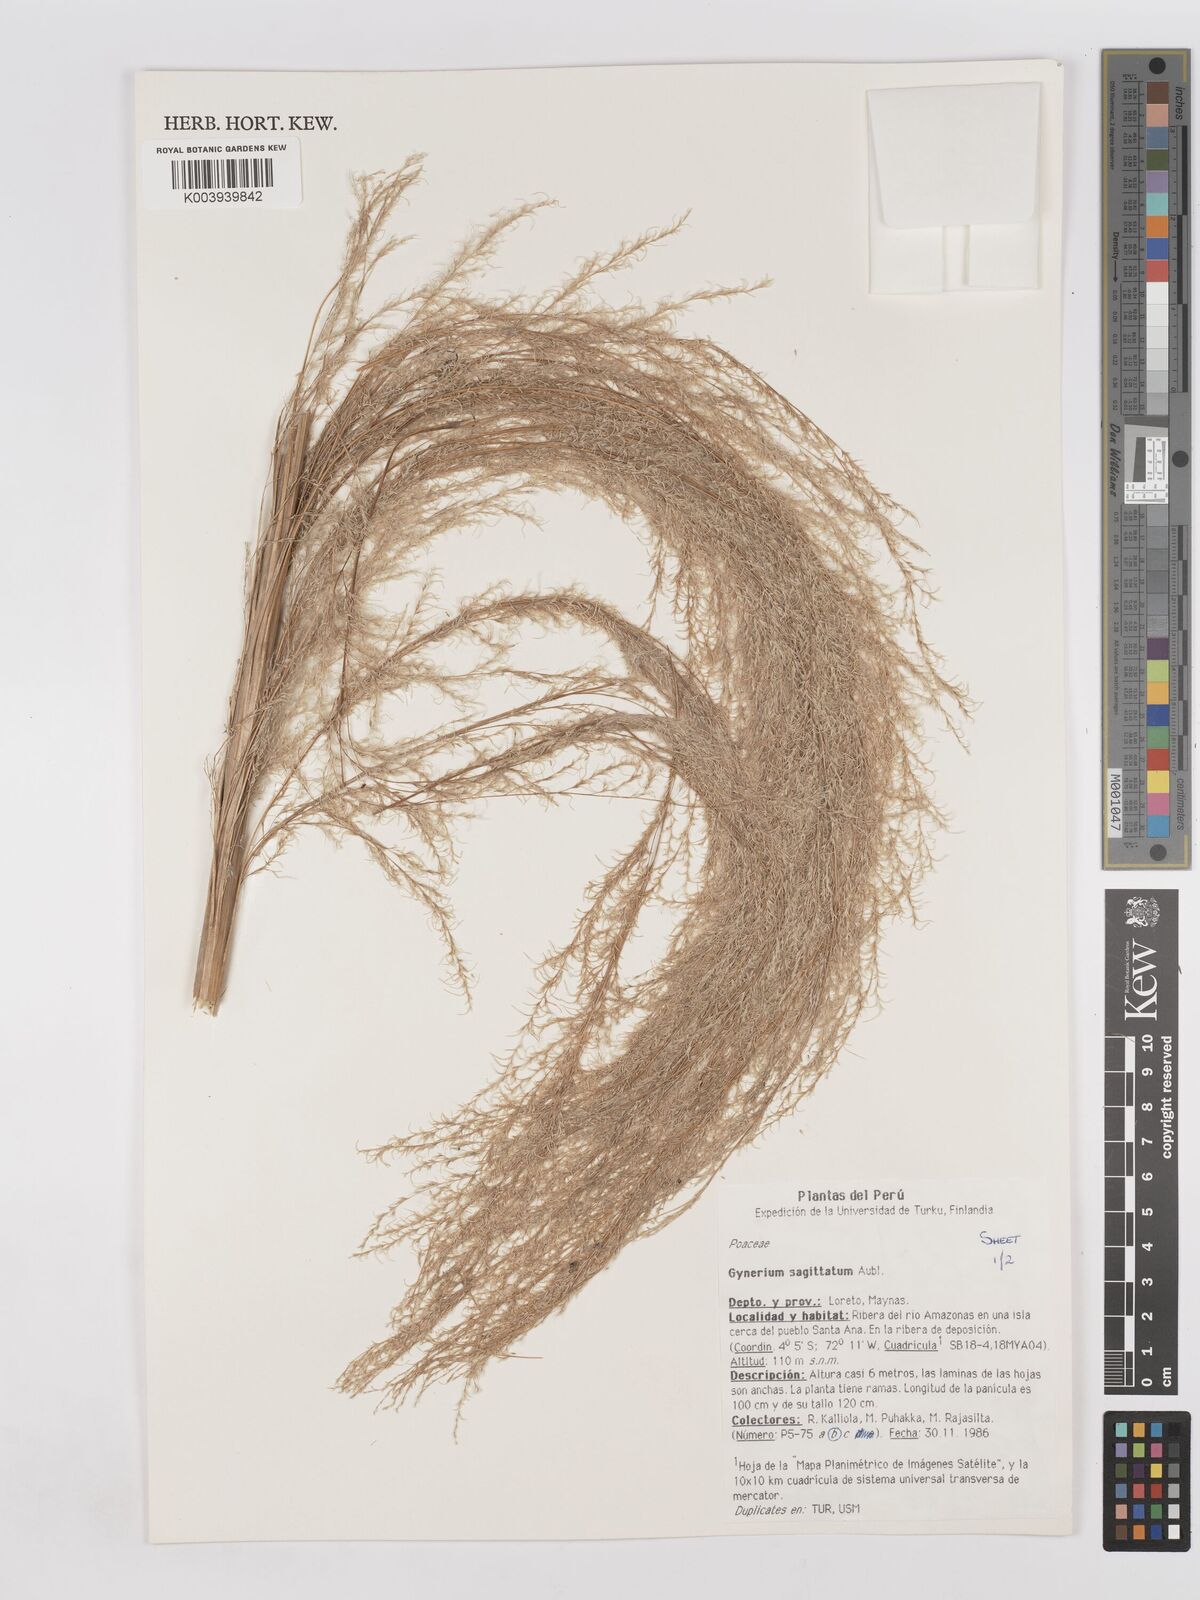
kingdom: Plantae
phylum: Tracheophyta
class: Liliopsida
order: Poales
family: Poaceae
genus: Gynerium
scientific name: Gynerium sagittatum
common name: Wild cane
